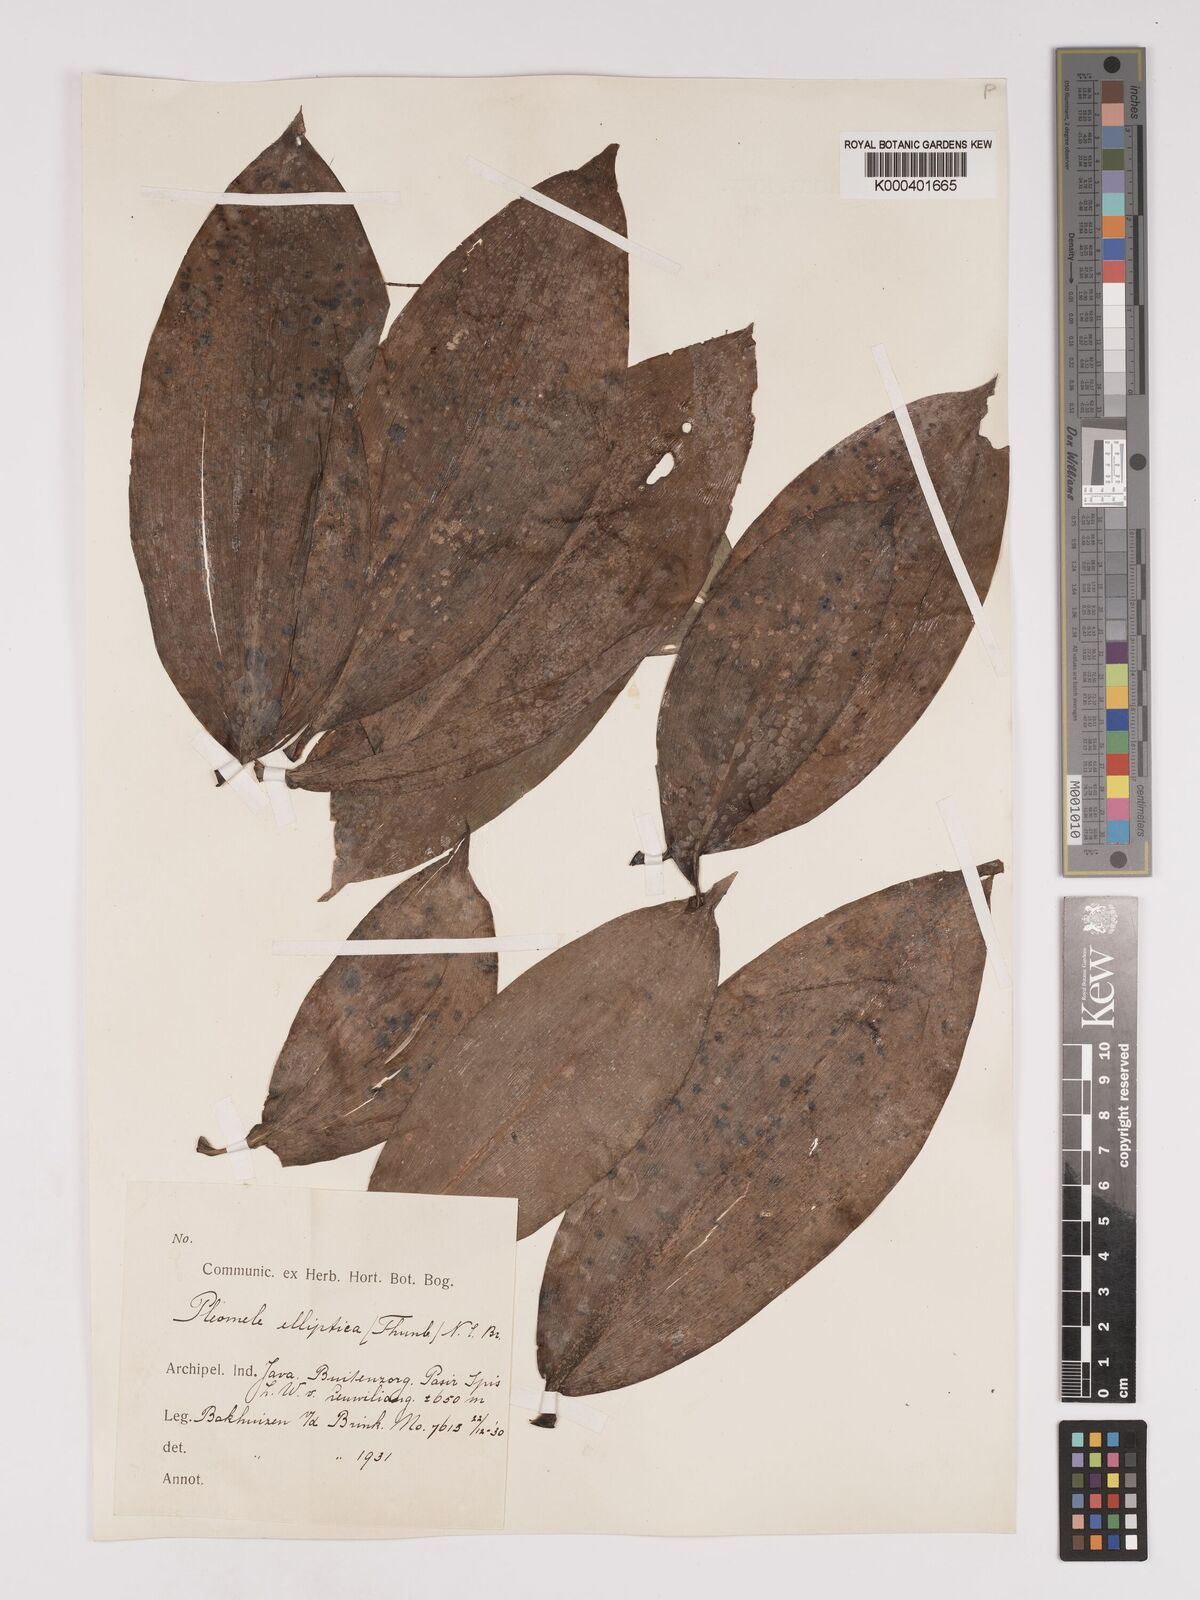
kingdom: Plantae
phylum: Tracheophyta
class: Liliopsida
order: Asparagales
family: Asparagaceae
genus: Dracaena
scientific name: Dracaena elliptica
